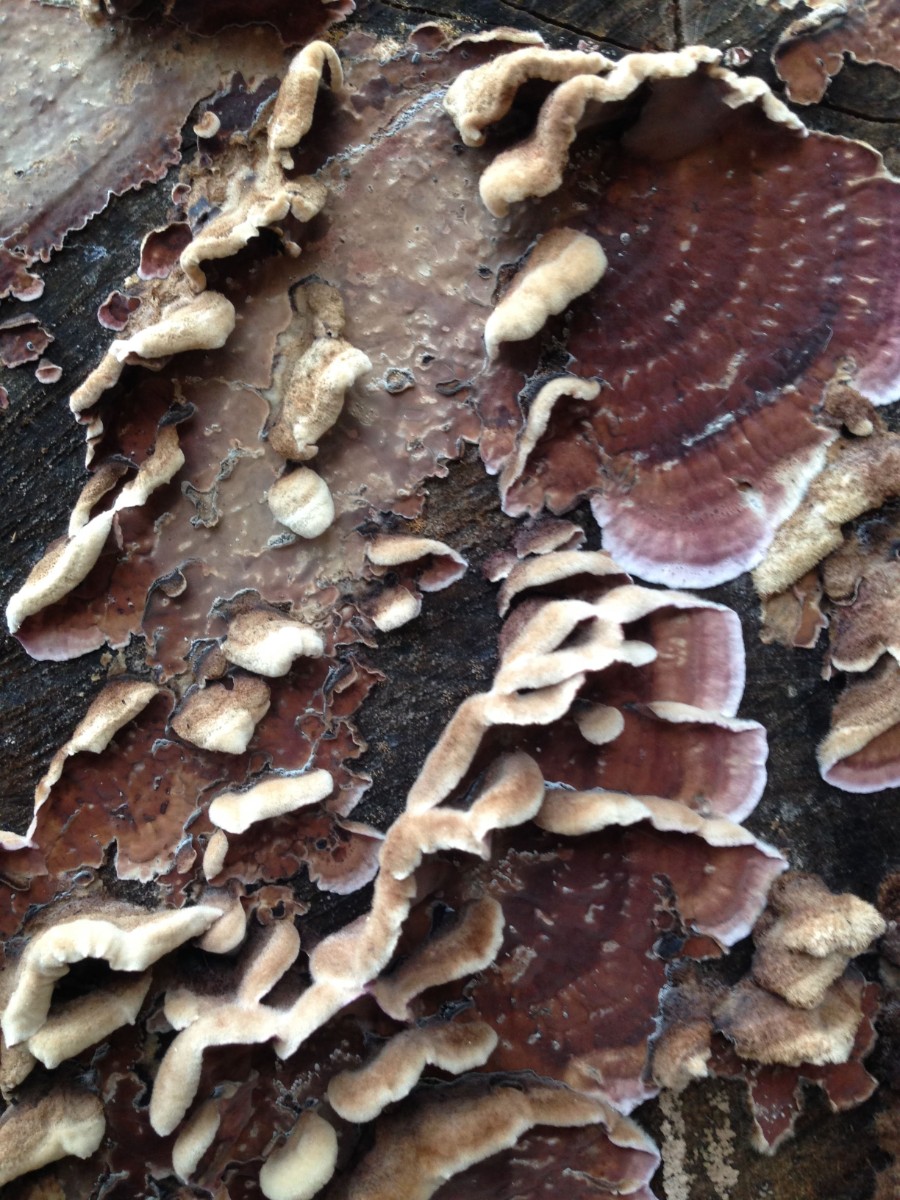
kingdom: Fungi
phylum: Basidiomycota
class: Agaricomycetes
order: Agaricales
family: Cyphellaceae
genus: Chondrostereum
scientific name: Chondrostereum purpureum
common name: purpurlædersvamp
